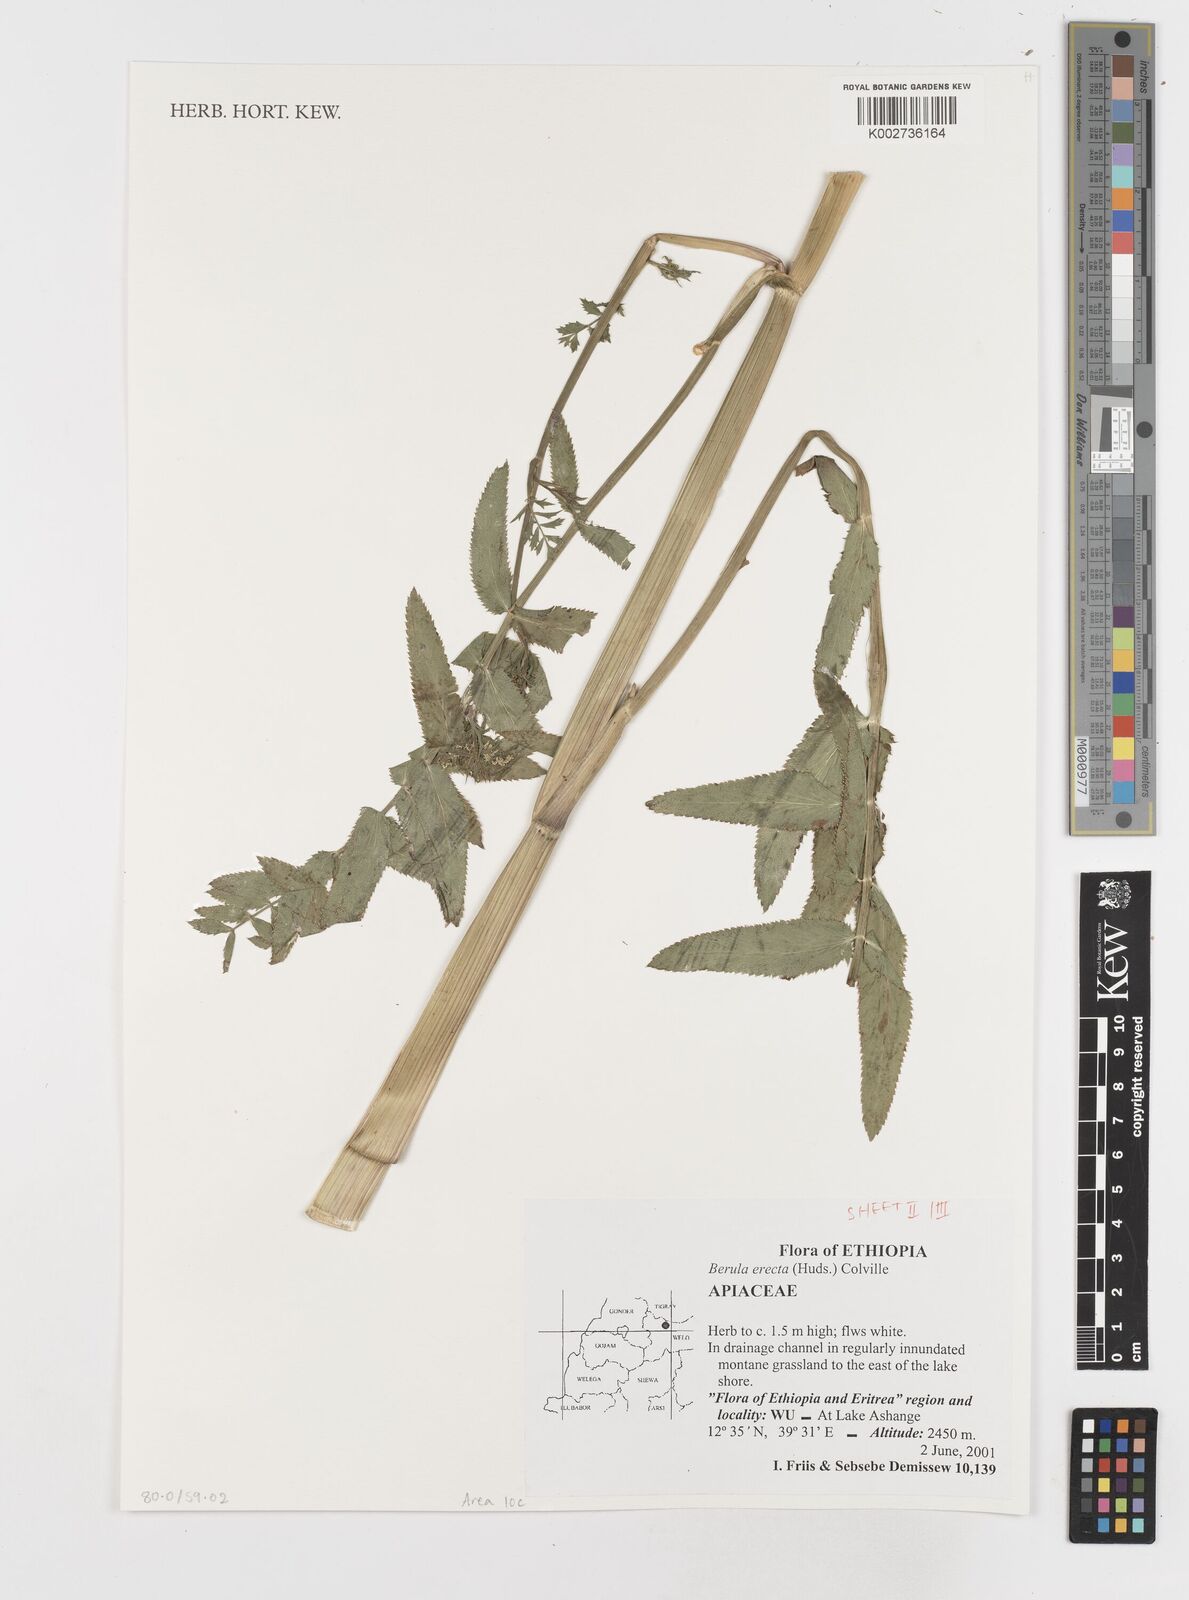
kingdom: Plantae
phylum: Tracheophyta
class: Magnoliopsida
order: Apiales
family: Apiaceae
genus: Berula
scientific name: Berula erecta
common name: Lesser water-parsnip
